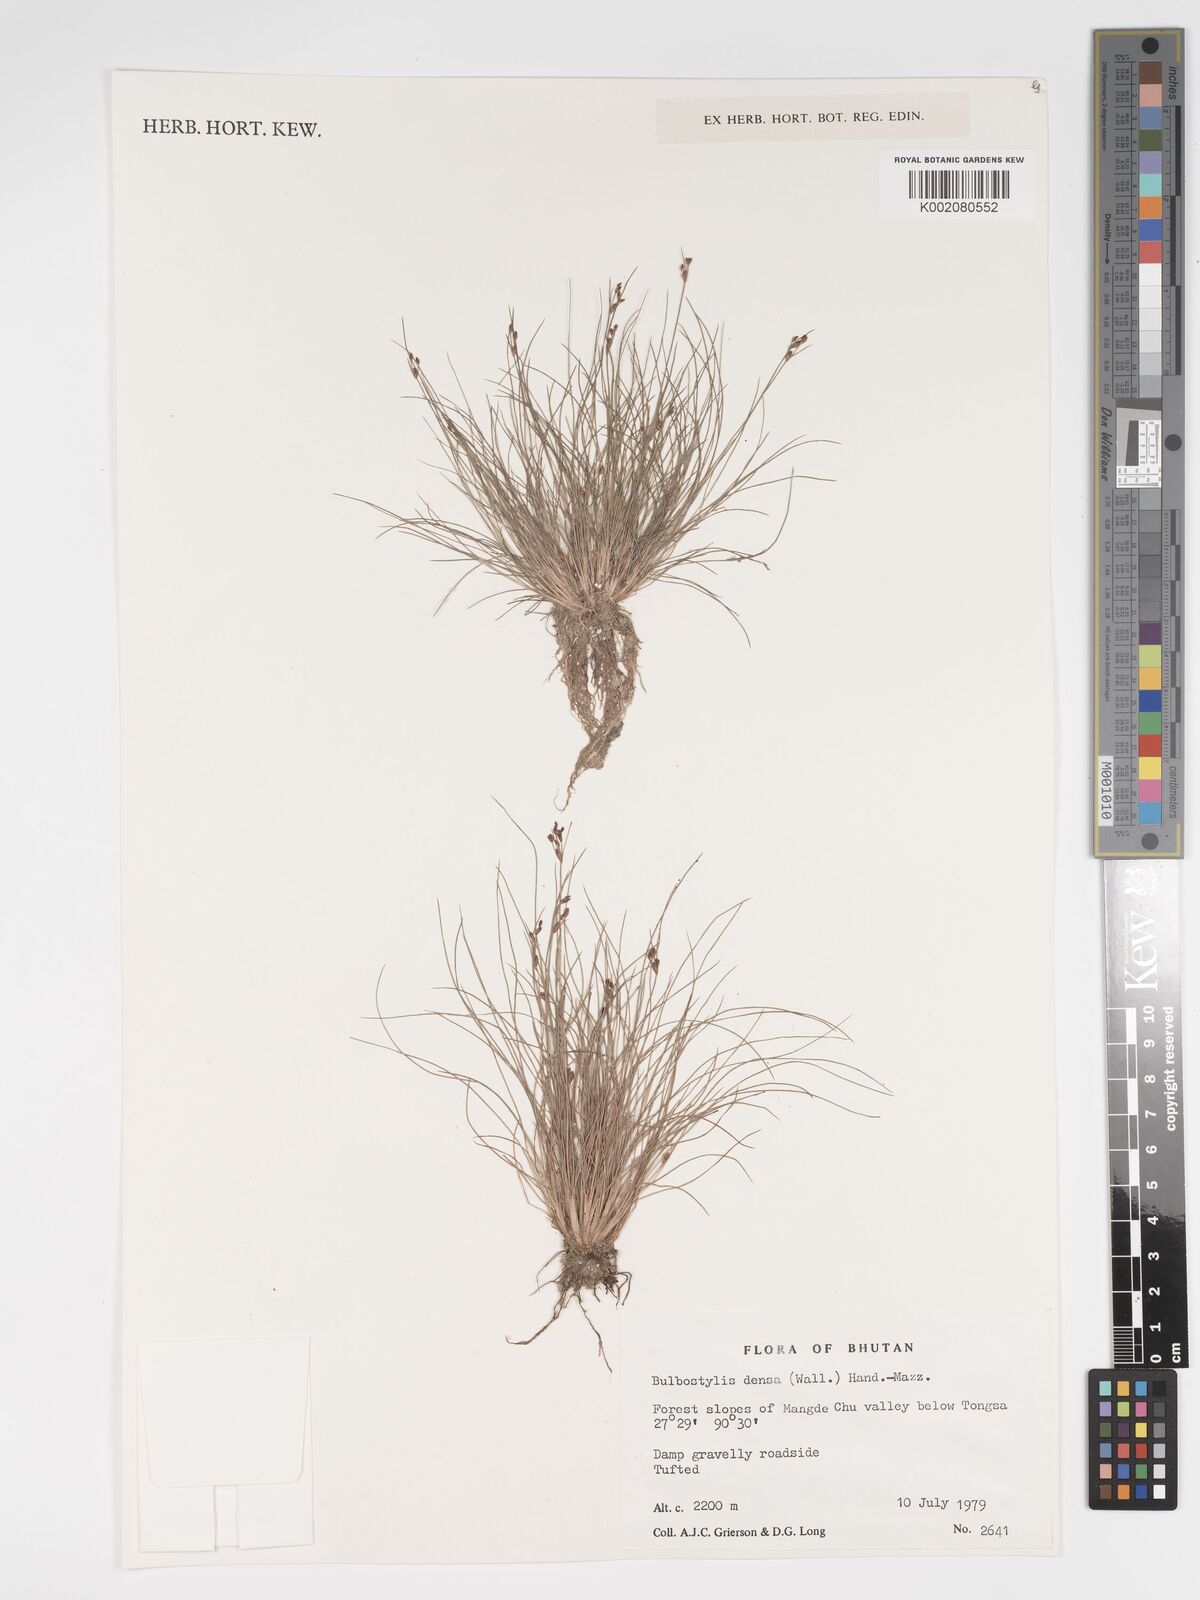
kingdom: Plantae
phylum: Tracheophyta
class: Liliopsida
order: Poales
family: Cyperaceae
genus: Bulbostylis
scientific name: Bulbostylis densa
